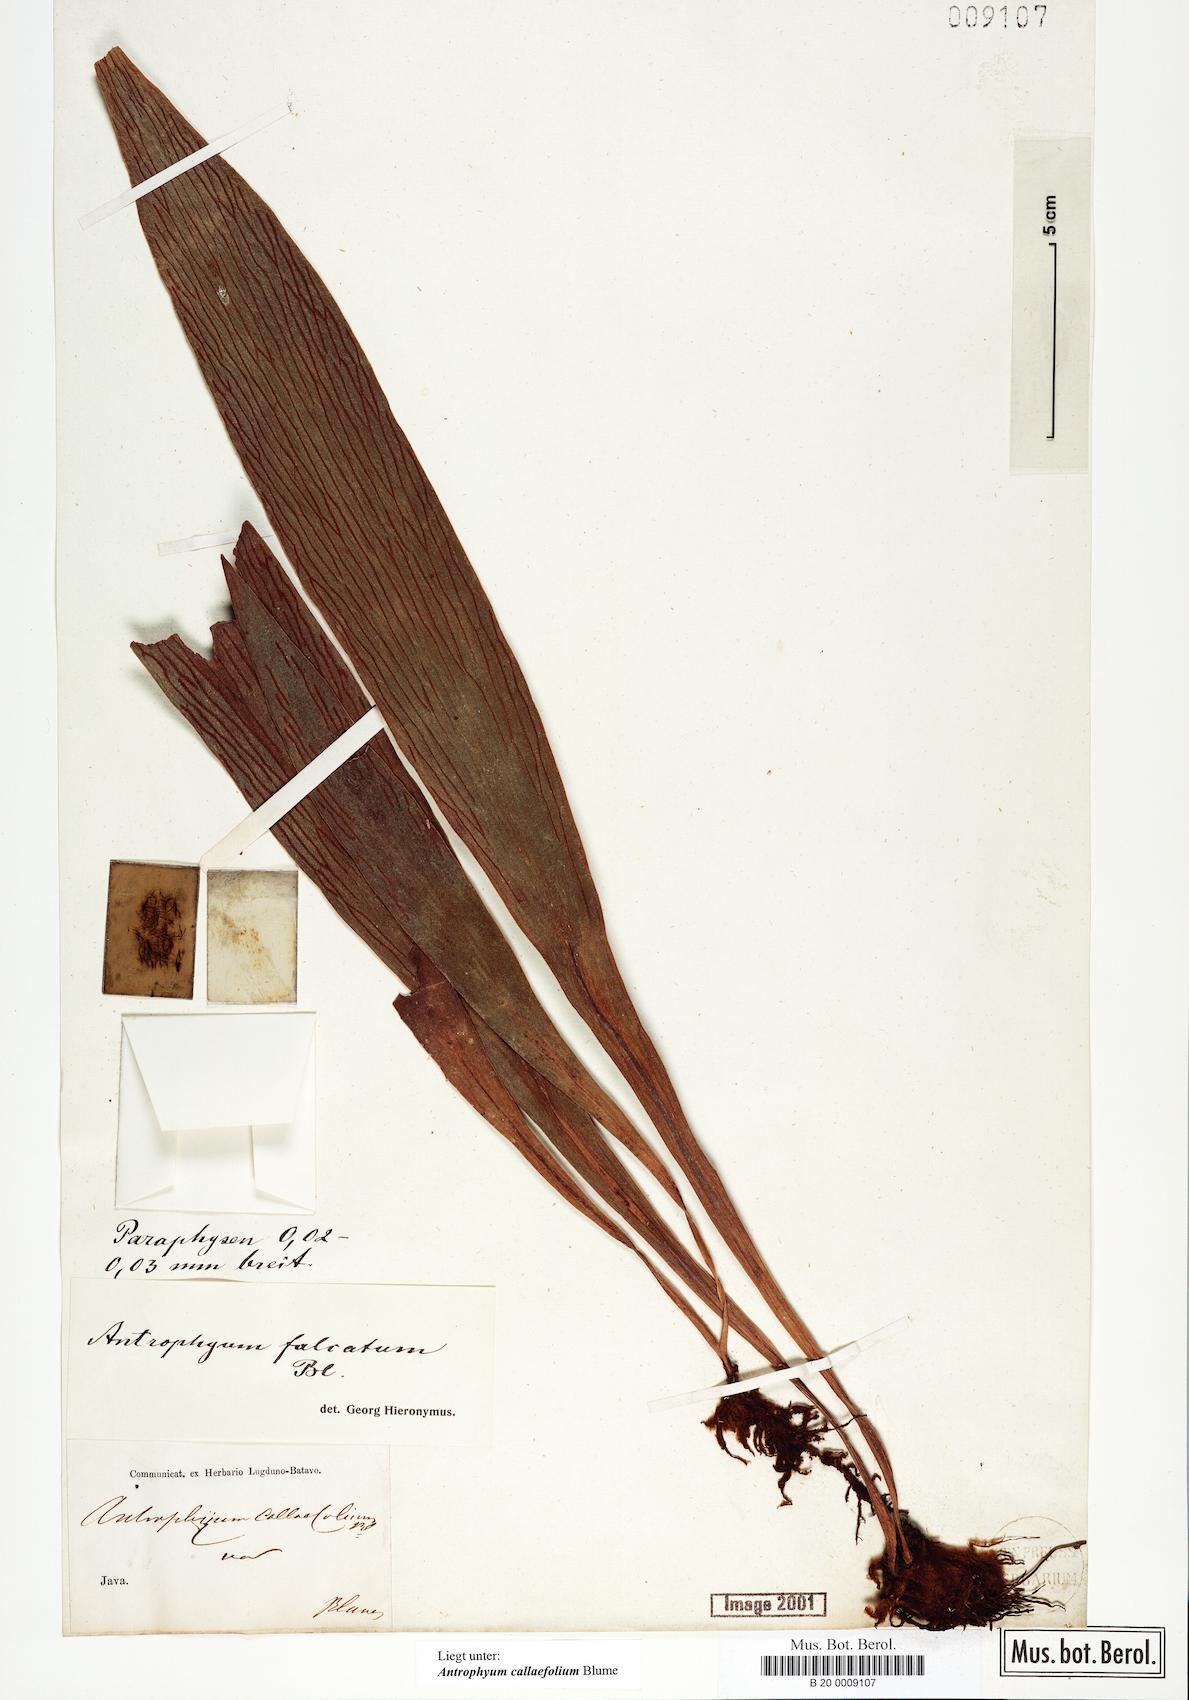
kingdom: Plantae
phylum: Tracheophyta
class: Polypodiopsida
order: Polypodiales
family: Pteridaceae
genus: Antrophyum
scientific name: Antrophyum callifolium
